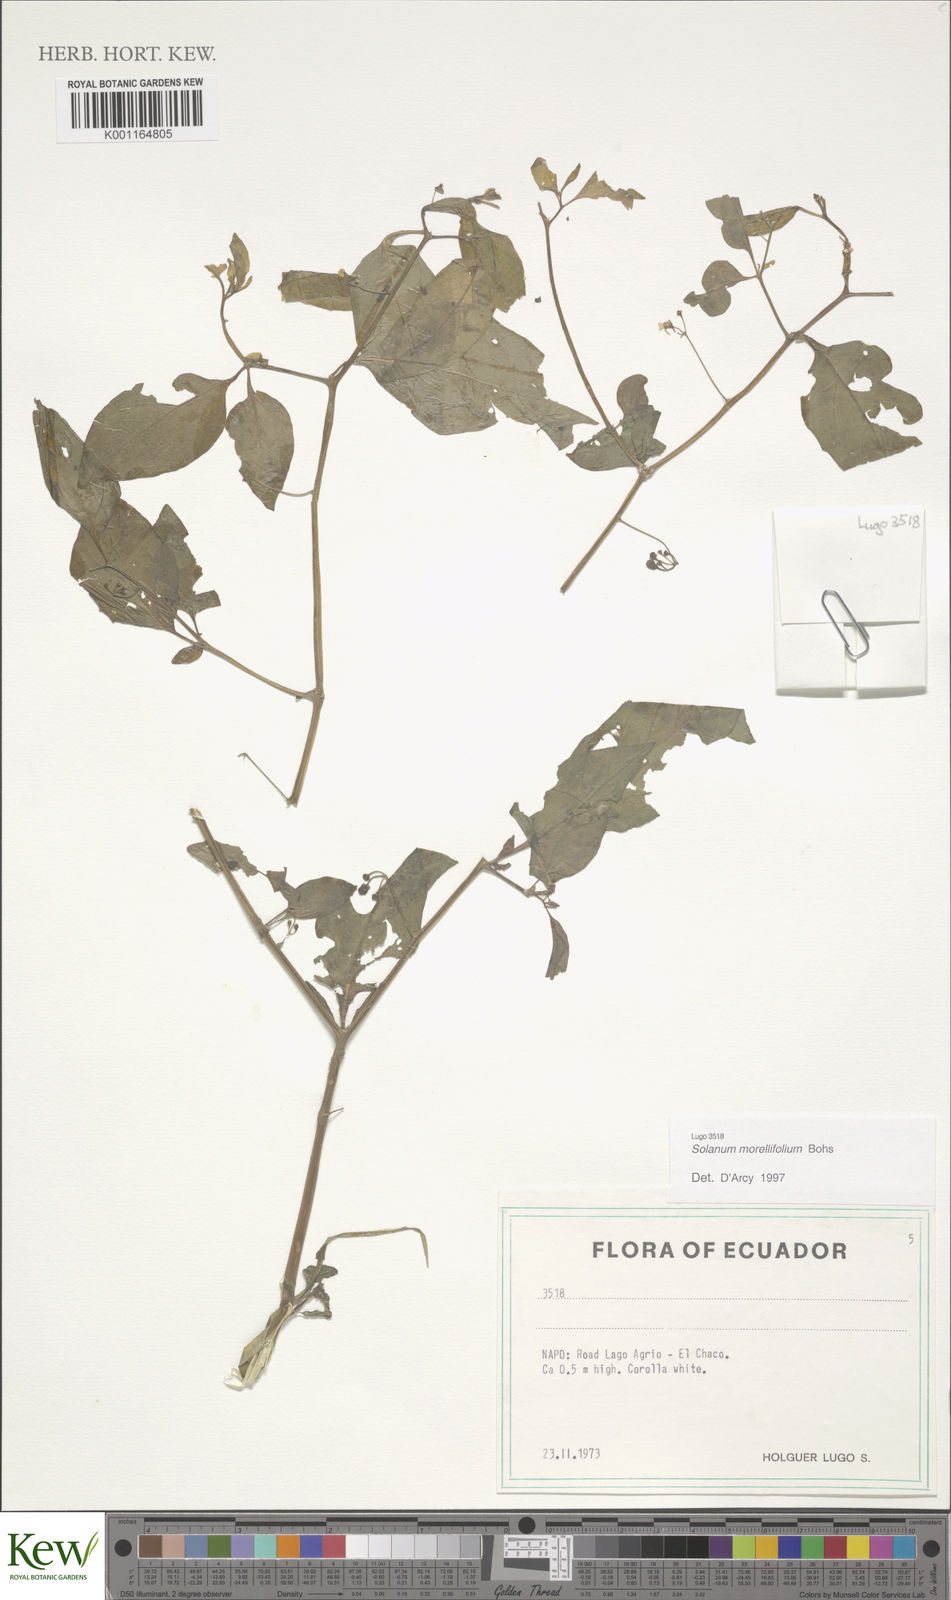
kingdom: Plantae
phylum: Tracheophyta
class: Magnoliopsida
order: Solanales
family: Solanaceae
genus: Solanum
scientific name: Solanum morellifolium
